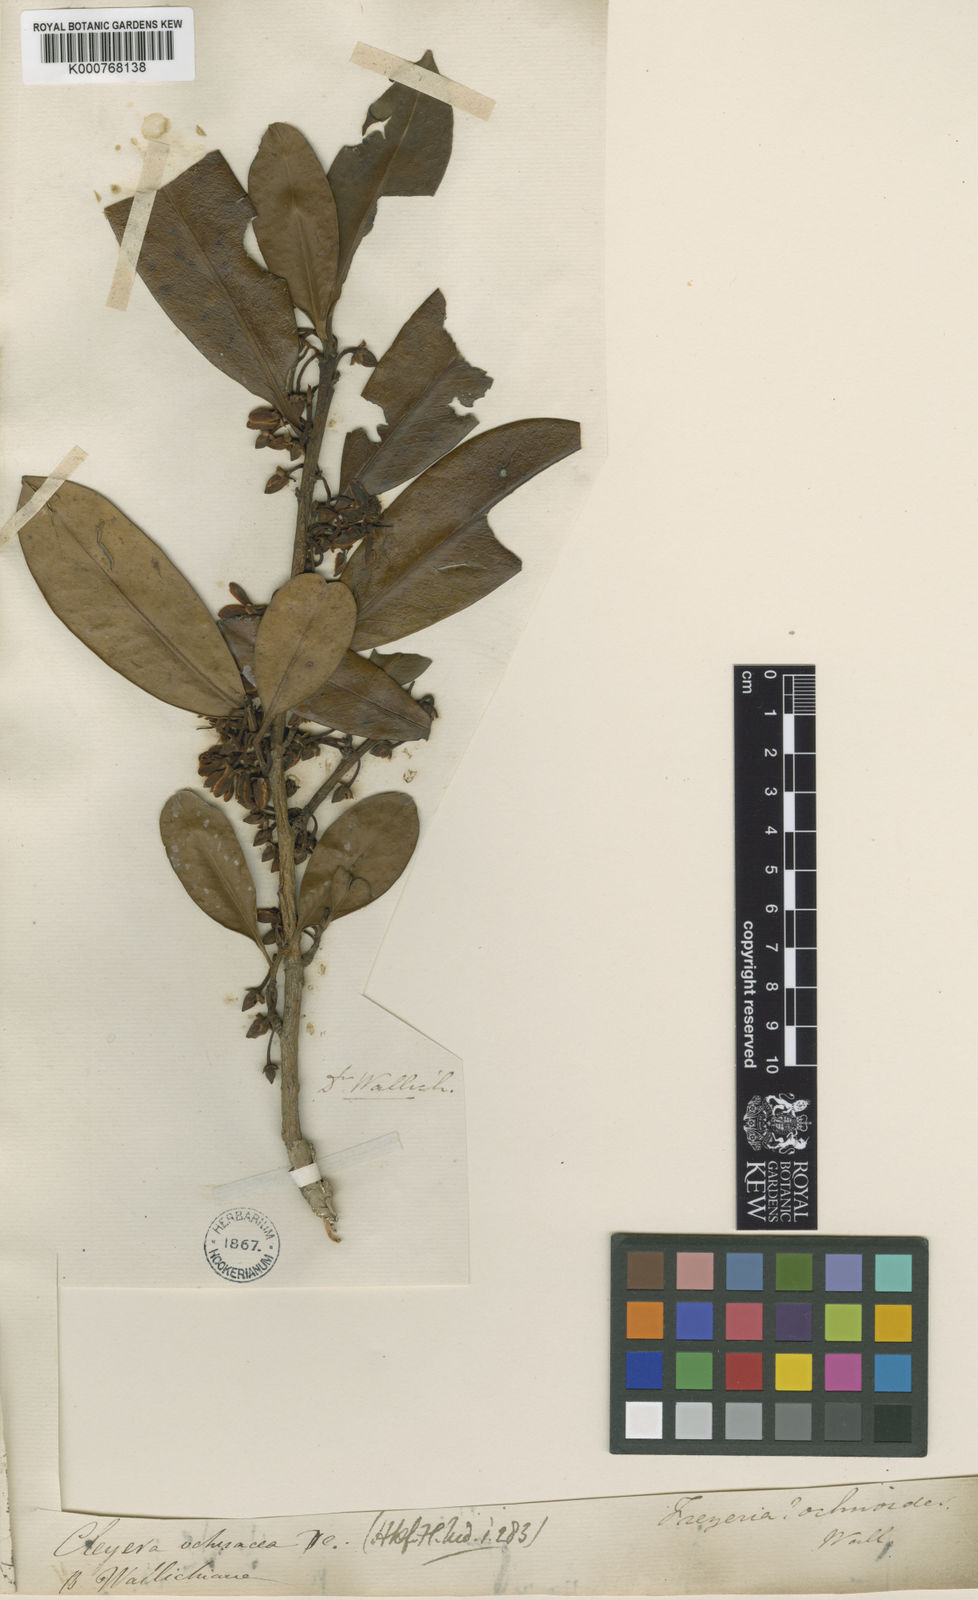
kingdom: Plantae
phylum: Tracheophyta
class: Magnoliopsida
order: Ericales
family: Pentaphylacaceae
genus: Cleyera
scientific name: Cleyera japonica
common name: Sakaki
